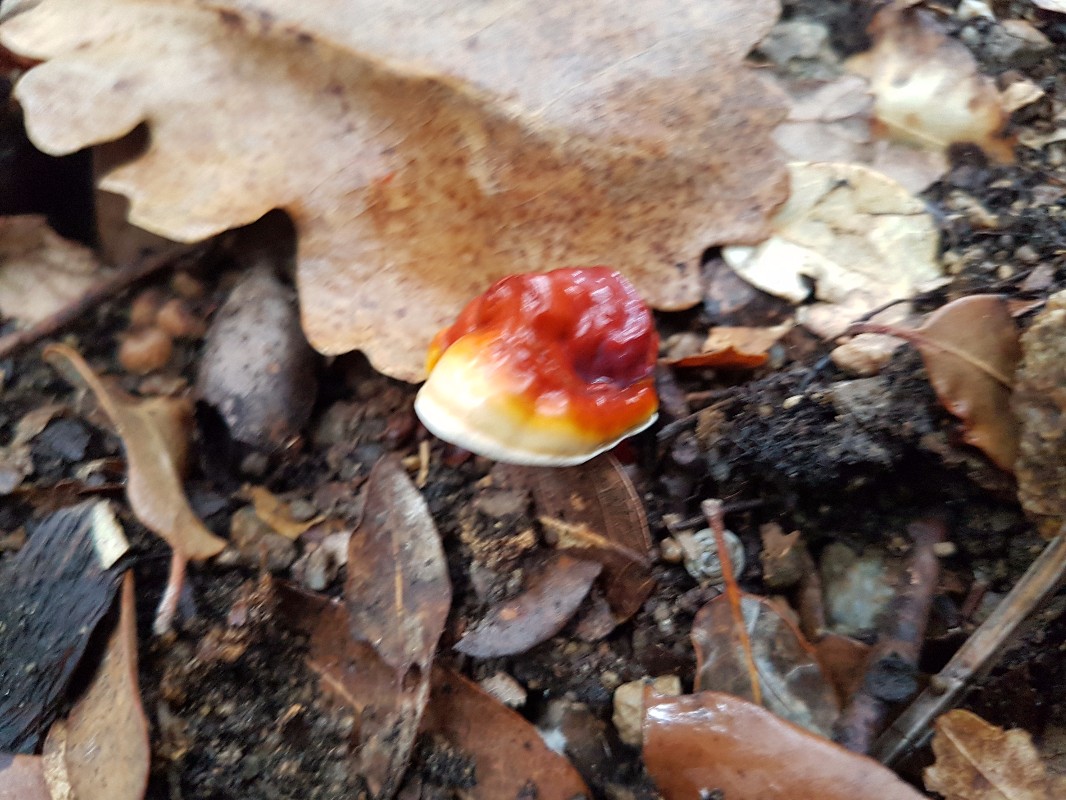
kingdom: Fungi
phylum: Basidiomycota
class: Agaricomycetes
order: Polyporales
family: Polyporaceae
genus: Ganoderma
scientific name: Ganoderma lucidum
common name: skinnende lakporesvamp
